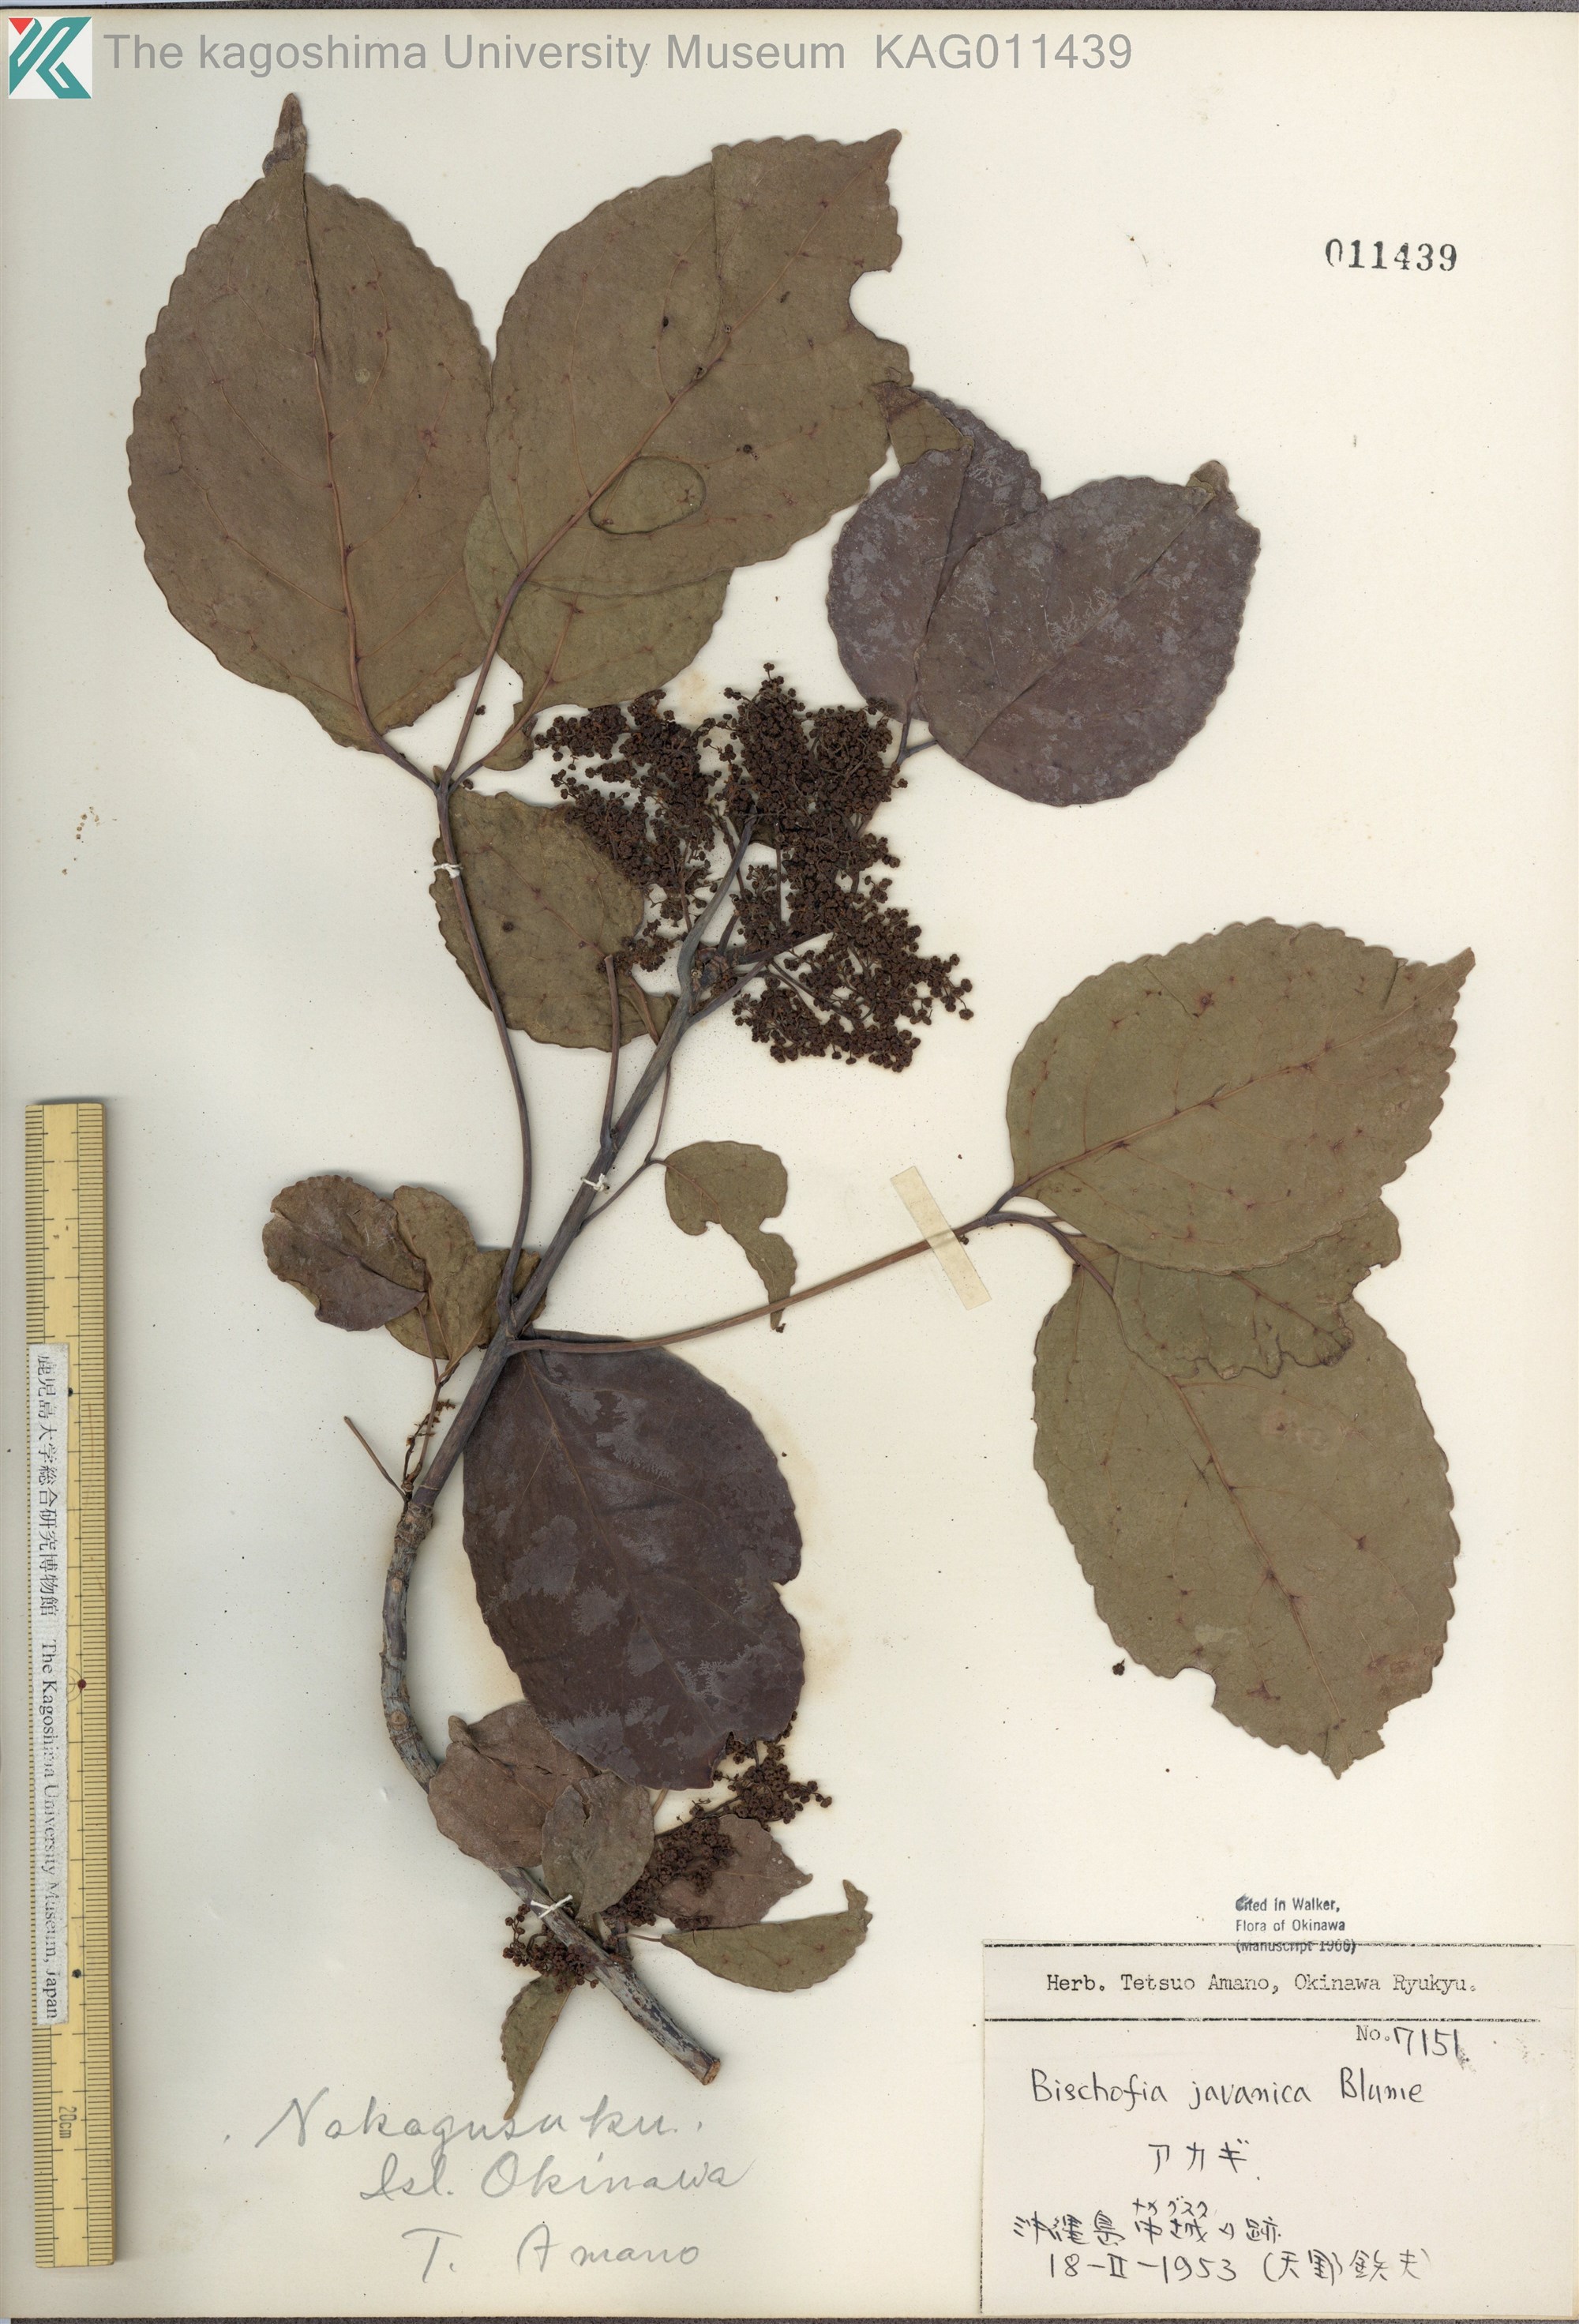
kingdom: Plantae
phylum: Tracheophyta
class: Magnoliopsida
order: Malpighiales
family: Phyllanthaceae
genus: Bischofia
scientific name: Bischofia javanica
